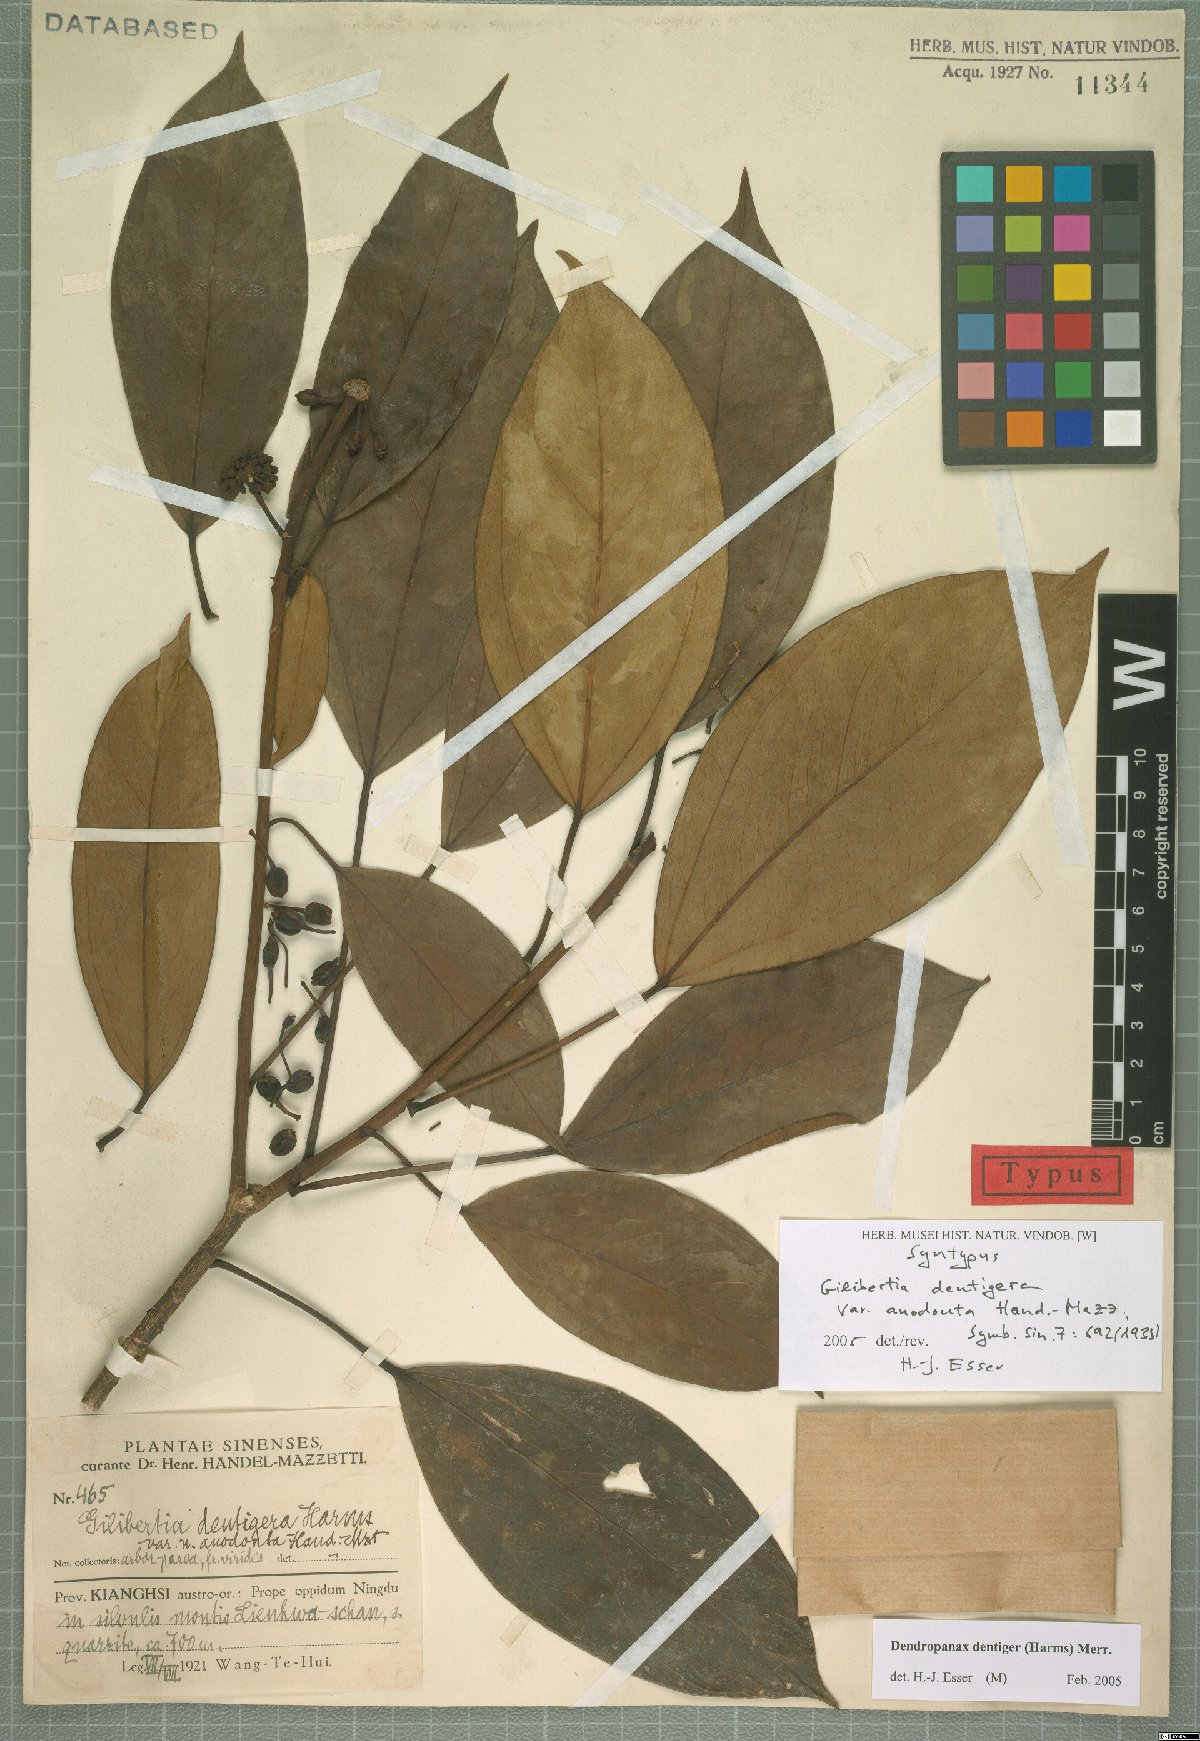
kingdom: Plantae
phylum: Tracheophyta
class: Magnoliopsida
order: Apiales
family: Araliaceae
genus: Dendropanax
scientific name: Dendropanax dentiger
